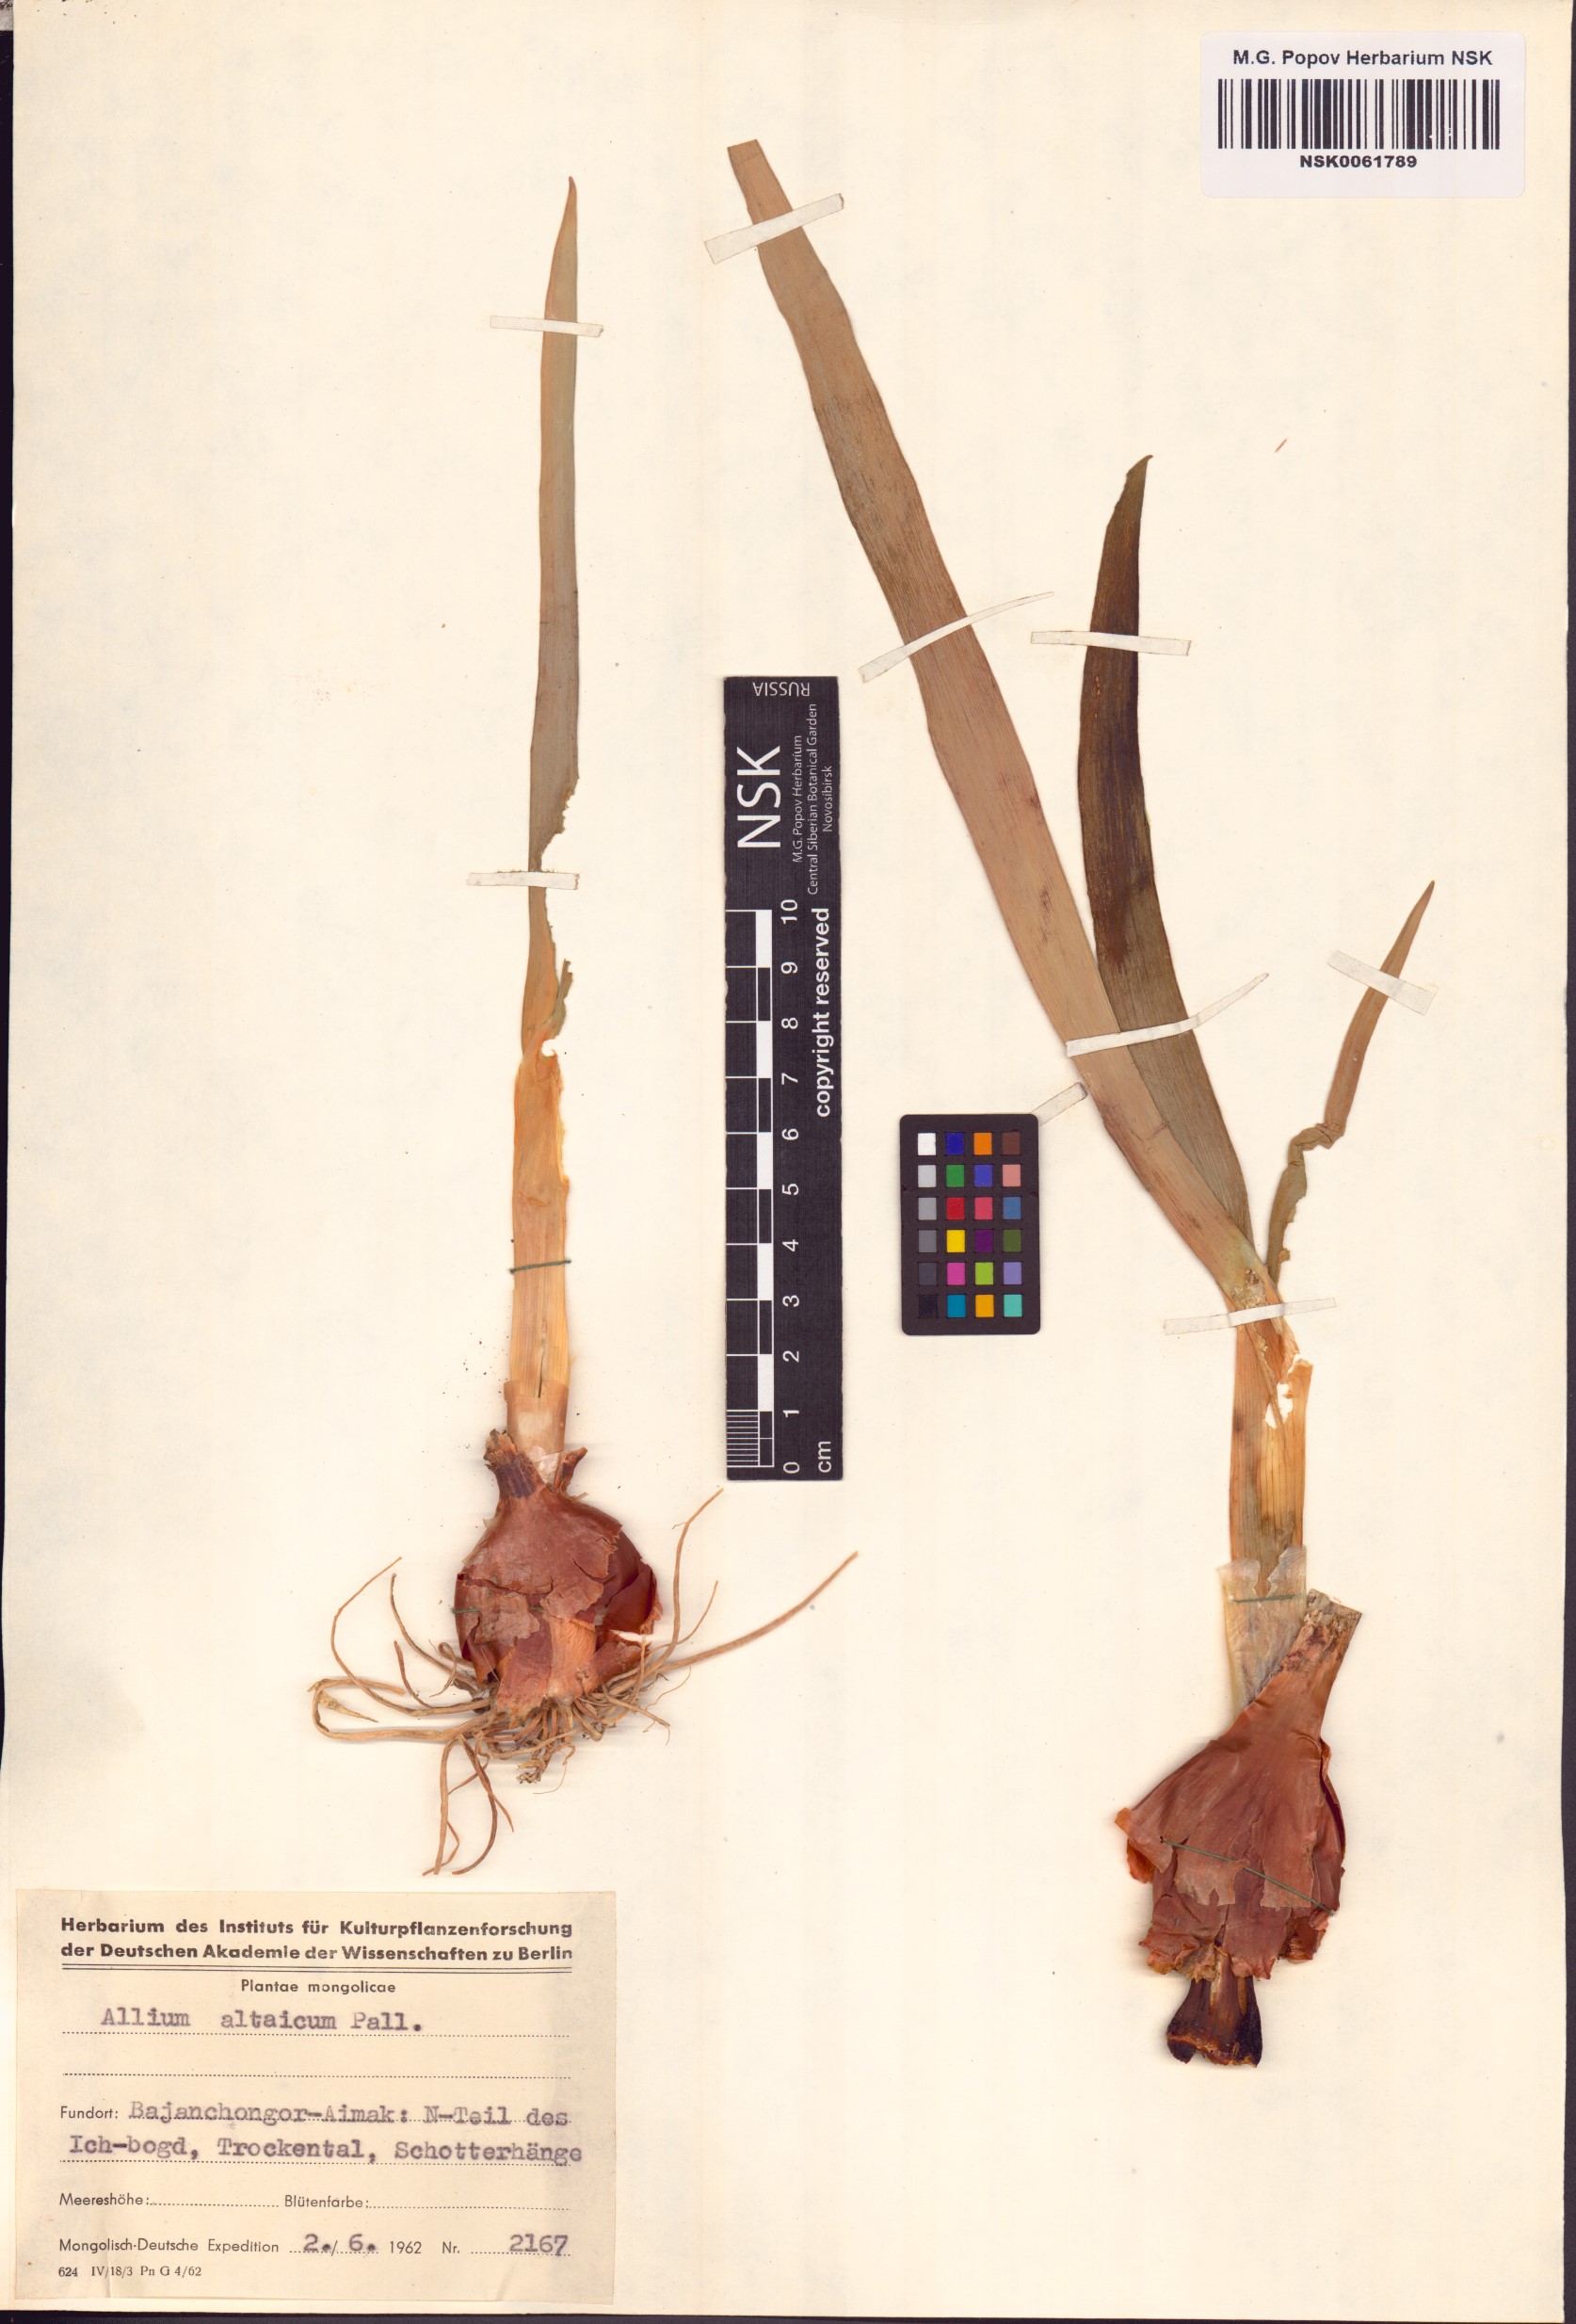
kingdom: Plantae
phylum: Tracheophyta
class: Liliopsida
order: Asparagales
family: Amaryllidaceae
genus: Allium
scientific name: Allium altaicum
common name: Altai onion
